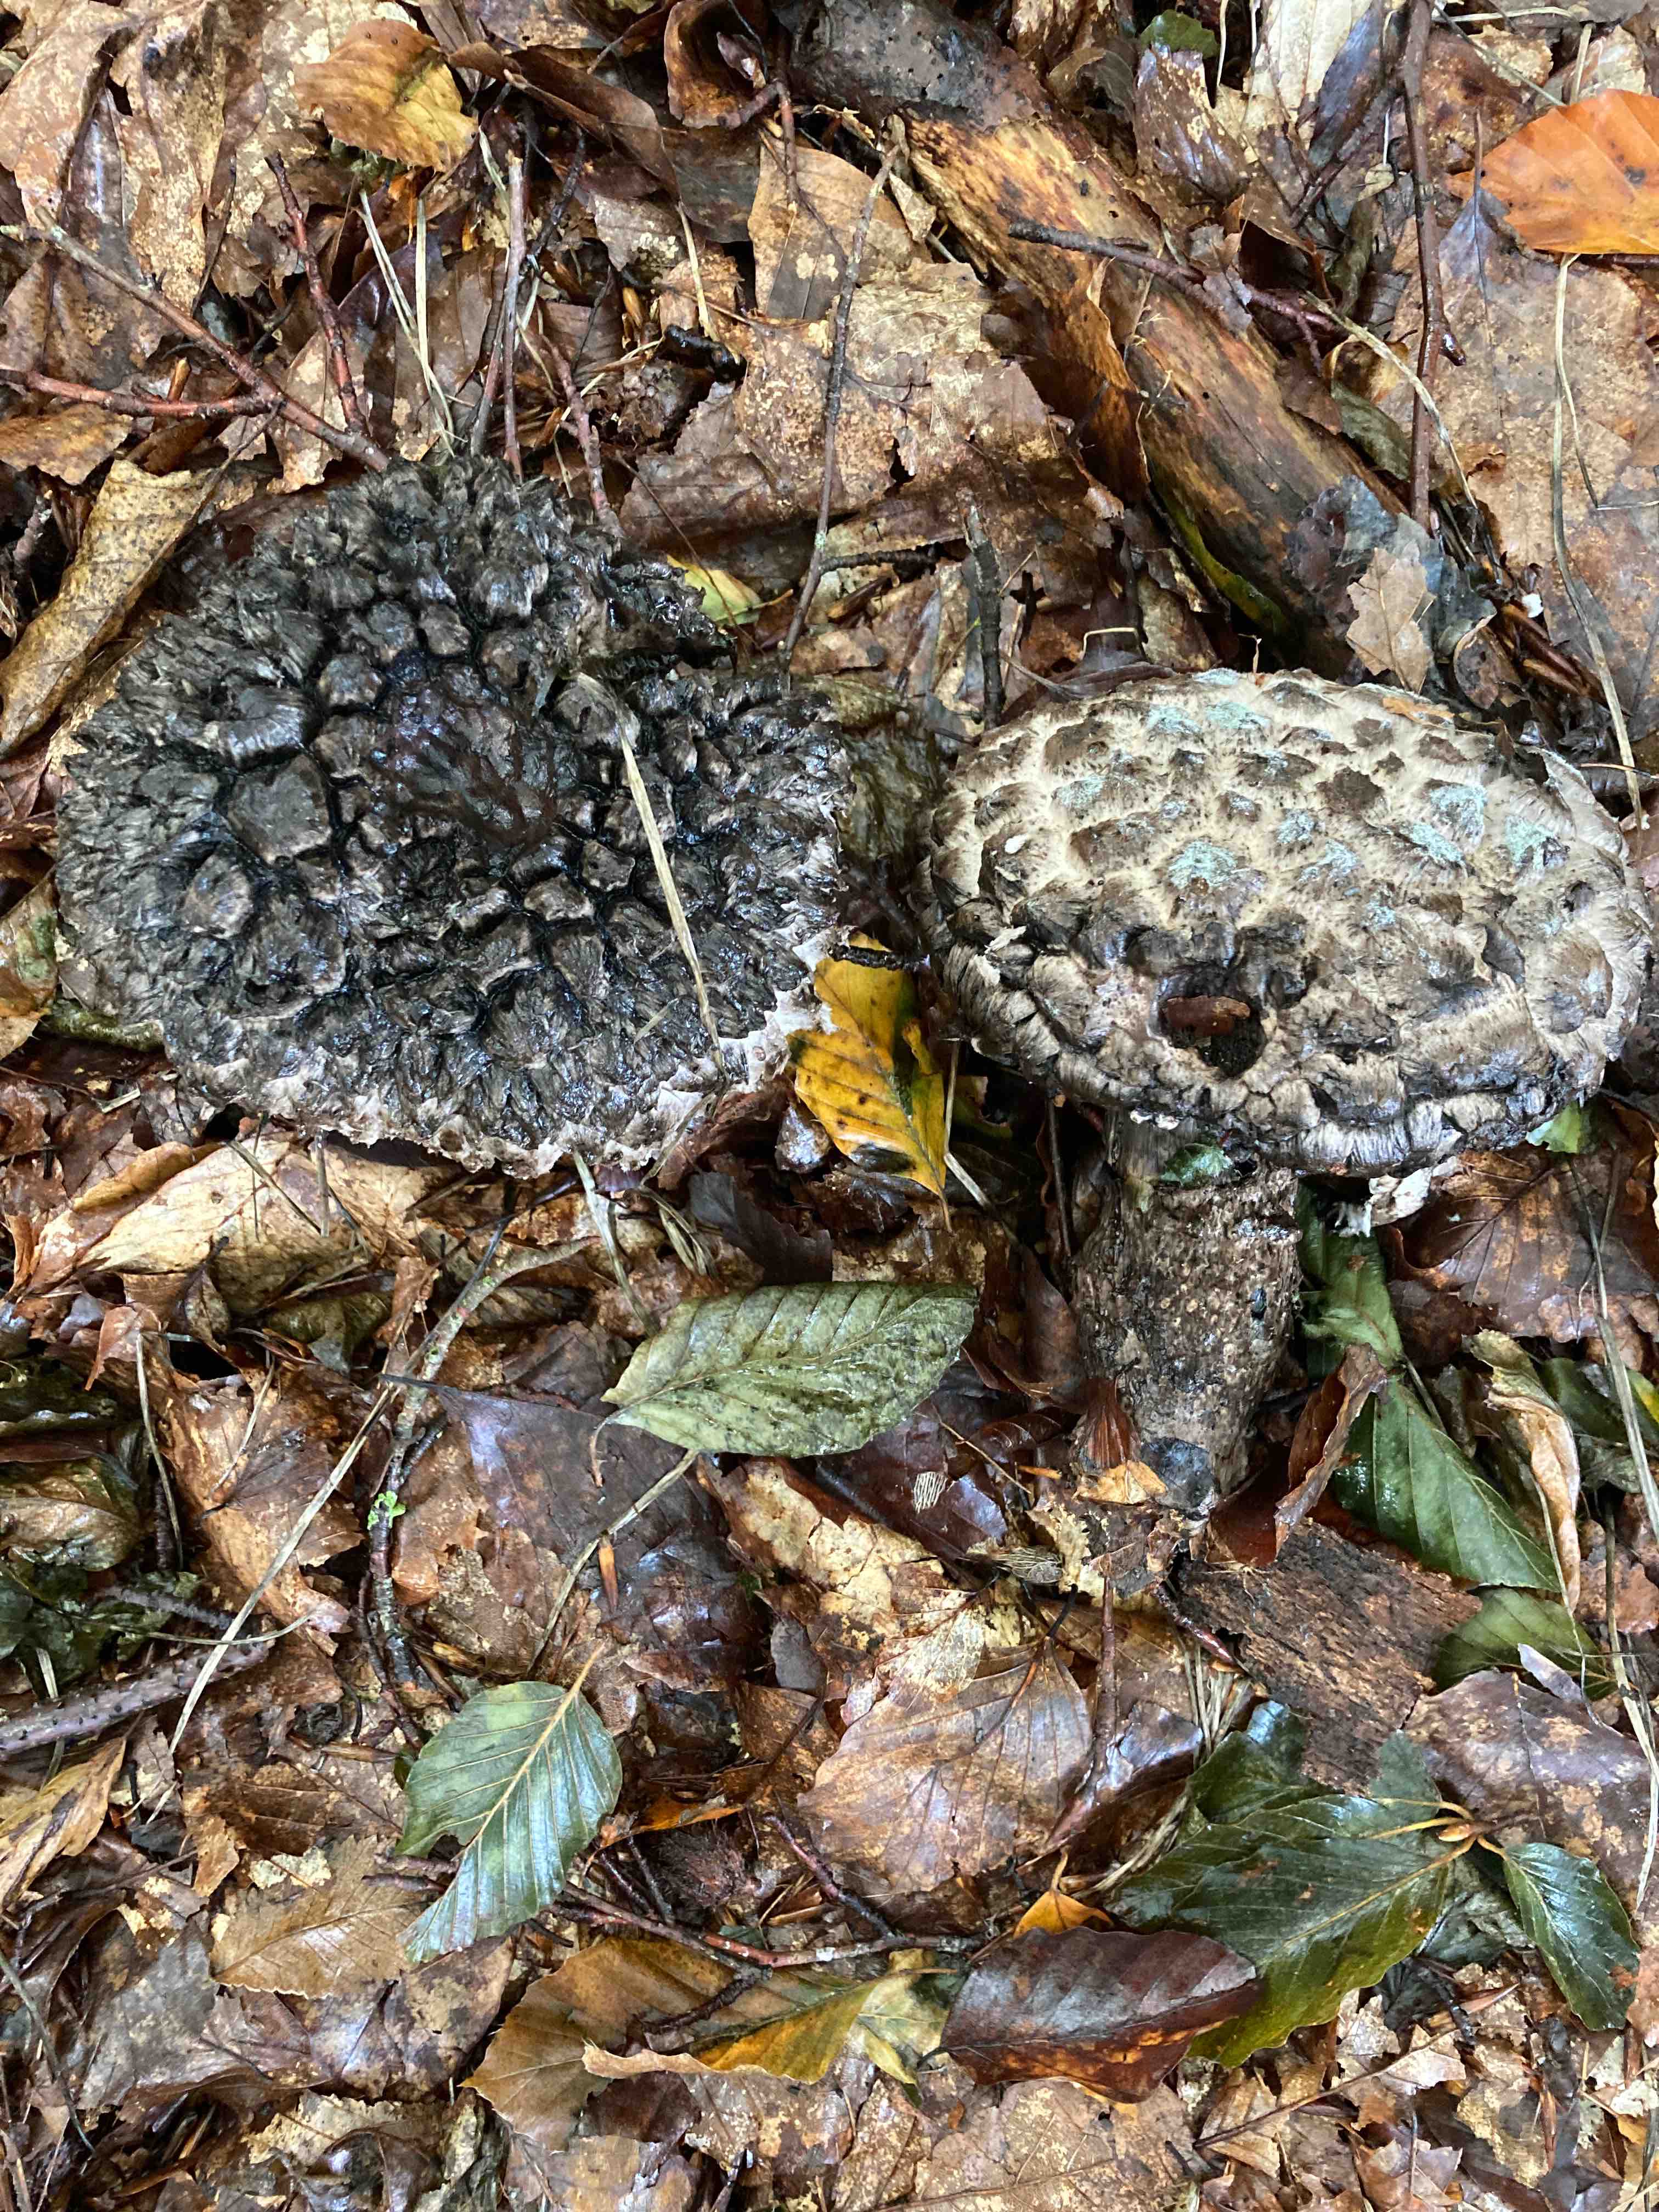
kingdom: Fungi
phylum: Basidiomycota
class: Agaricomycetes
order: Boletales
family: Boletaceae
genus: Strobilomyces
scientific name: Strobilomyces strobilaceus
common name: koglerørhat
